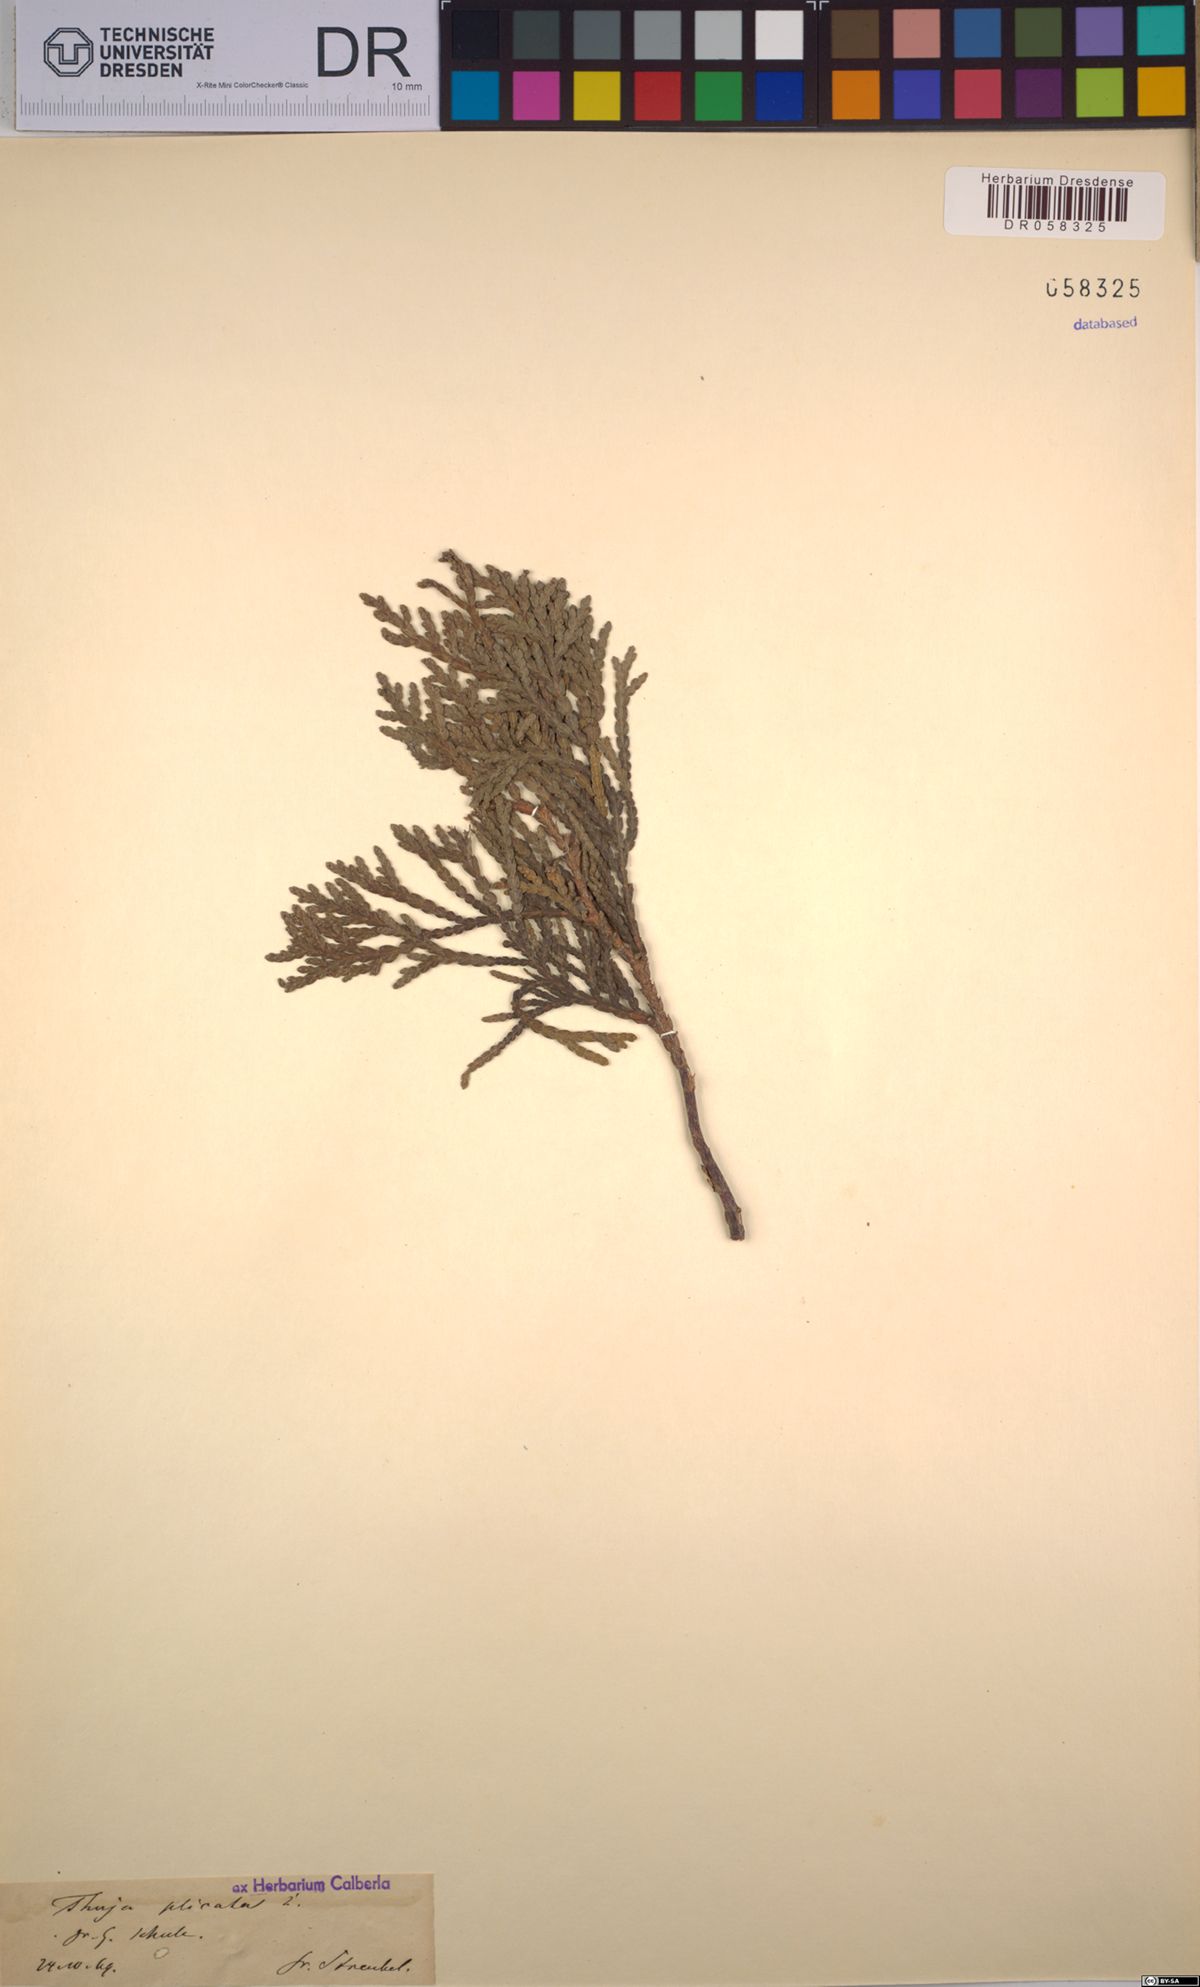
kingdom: Plantae
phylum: Tracheophyta
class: Pinopsida
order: Pinales
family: Cupressaceae
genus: Thuja
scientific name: Thuja plicata
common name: Western red-cedar
